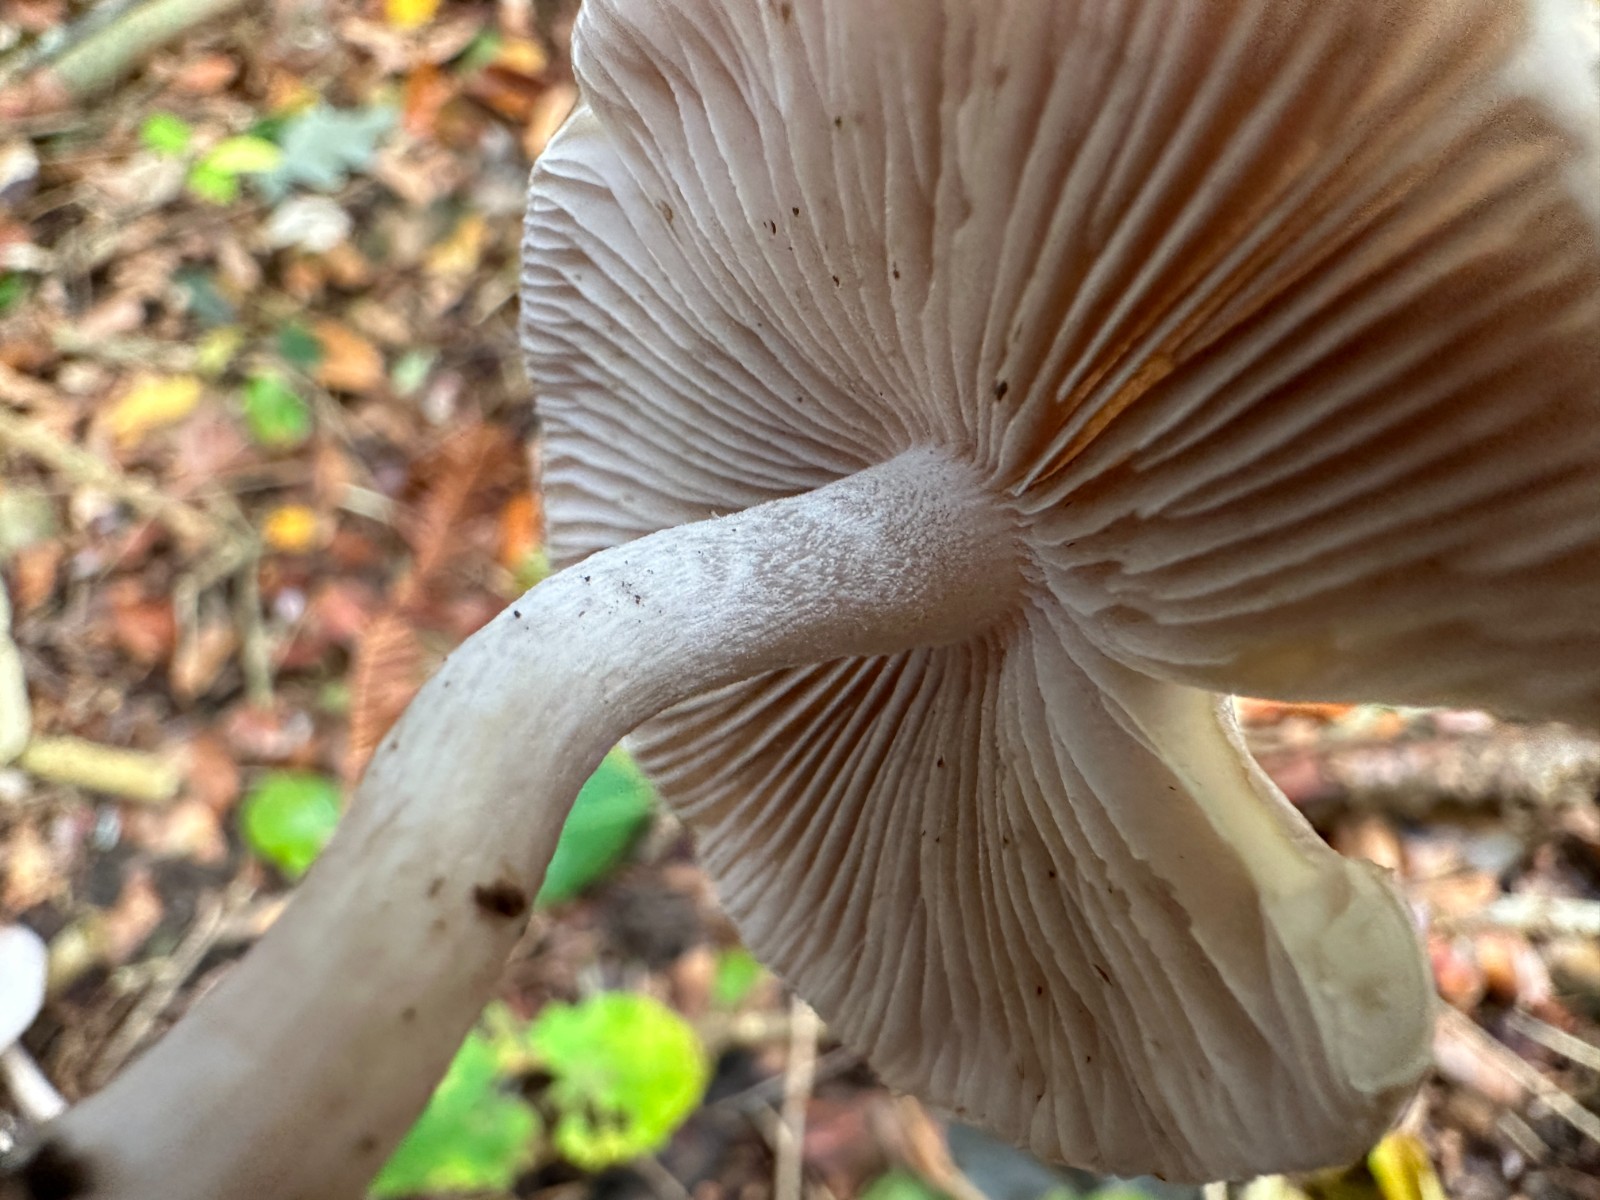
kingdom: Fungi
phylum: Basidiomycota
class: Agaricomycetes
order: Agaricales
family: Inocybaceae
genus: Inocybe
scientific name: Inocybe geophylla
